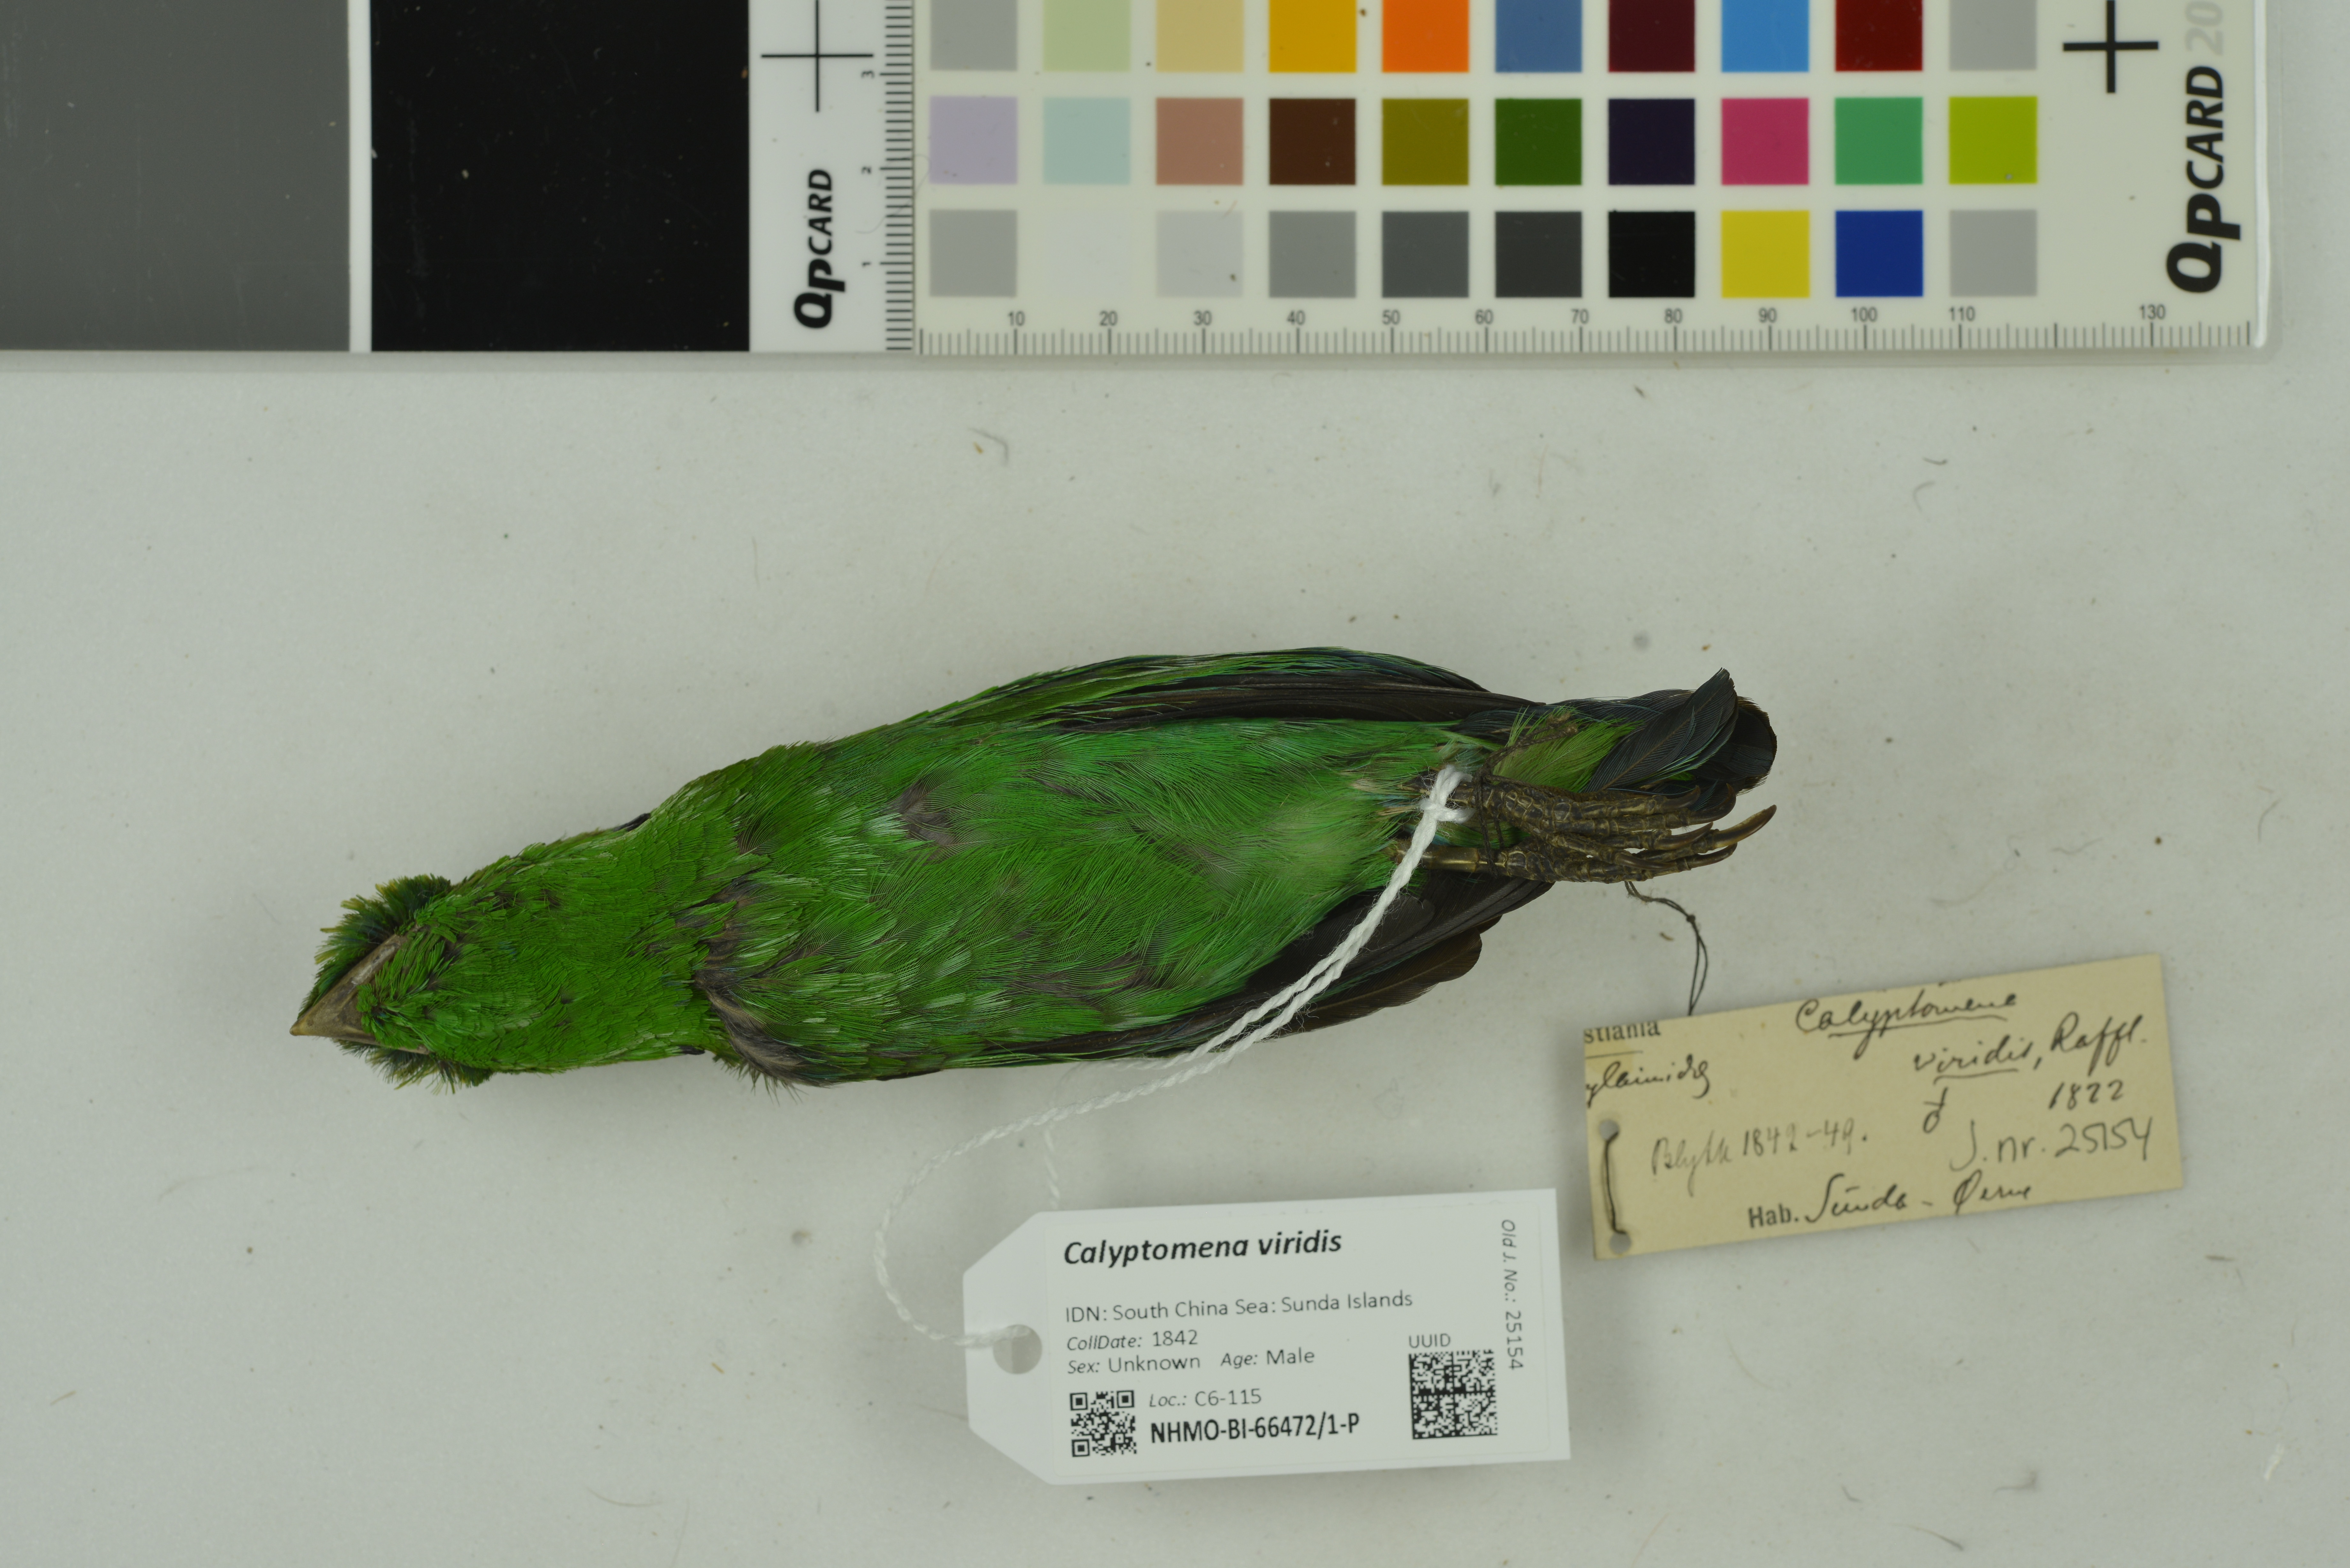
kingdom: Animalia
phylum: Chordata
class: Aves
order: Passeriformes
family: Eurylaimidae
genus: Calyptomena
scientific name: Calyptomena viridis
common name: Green broadbill
